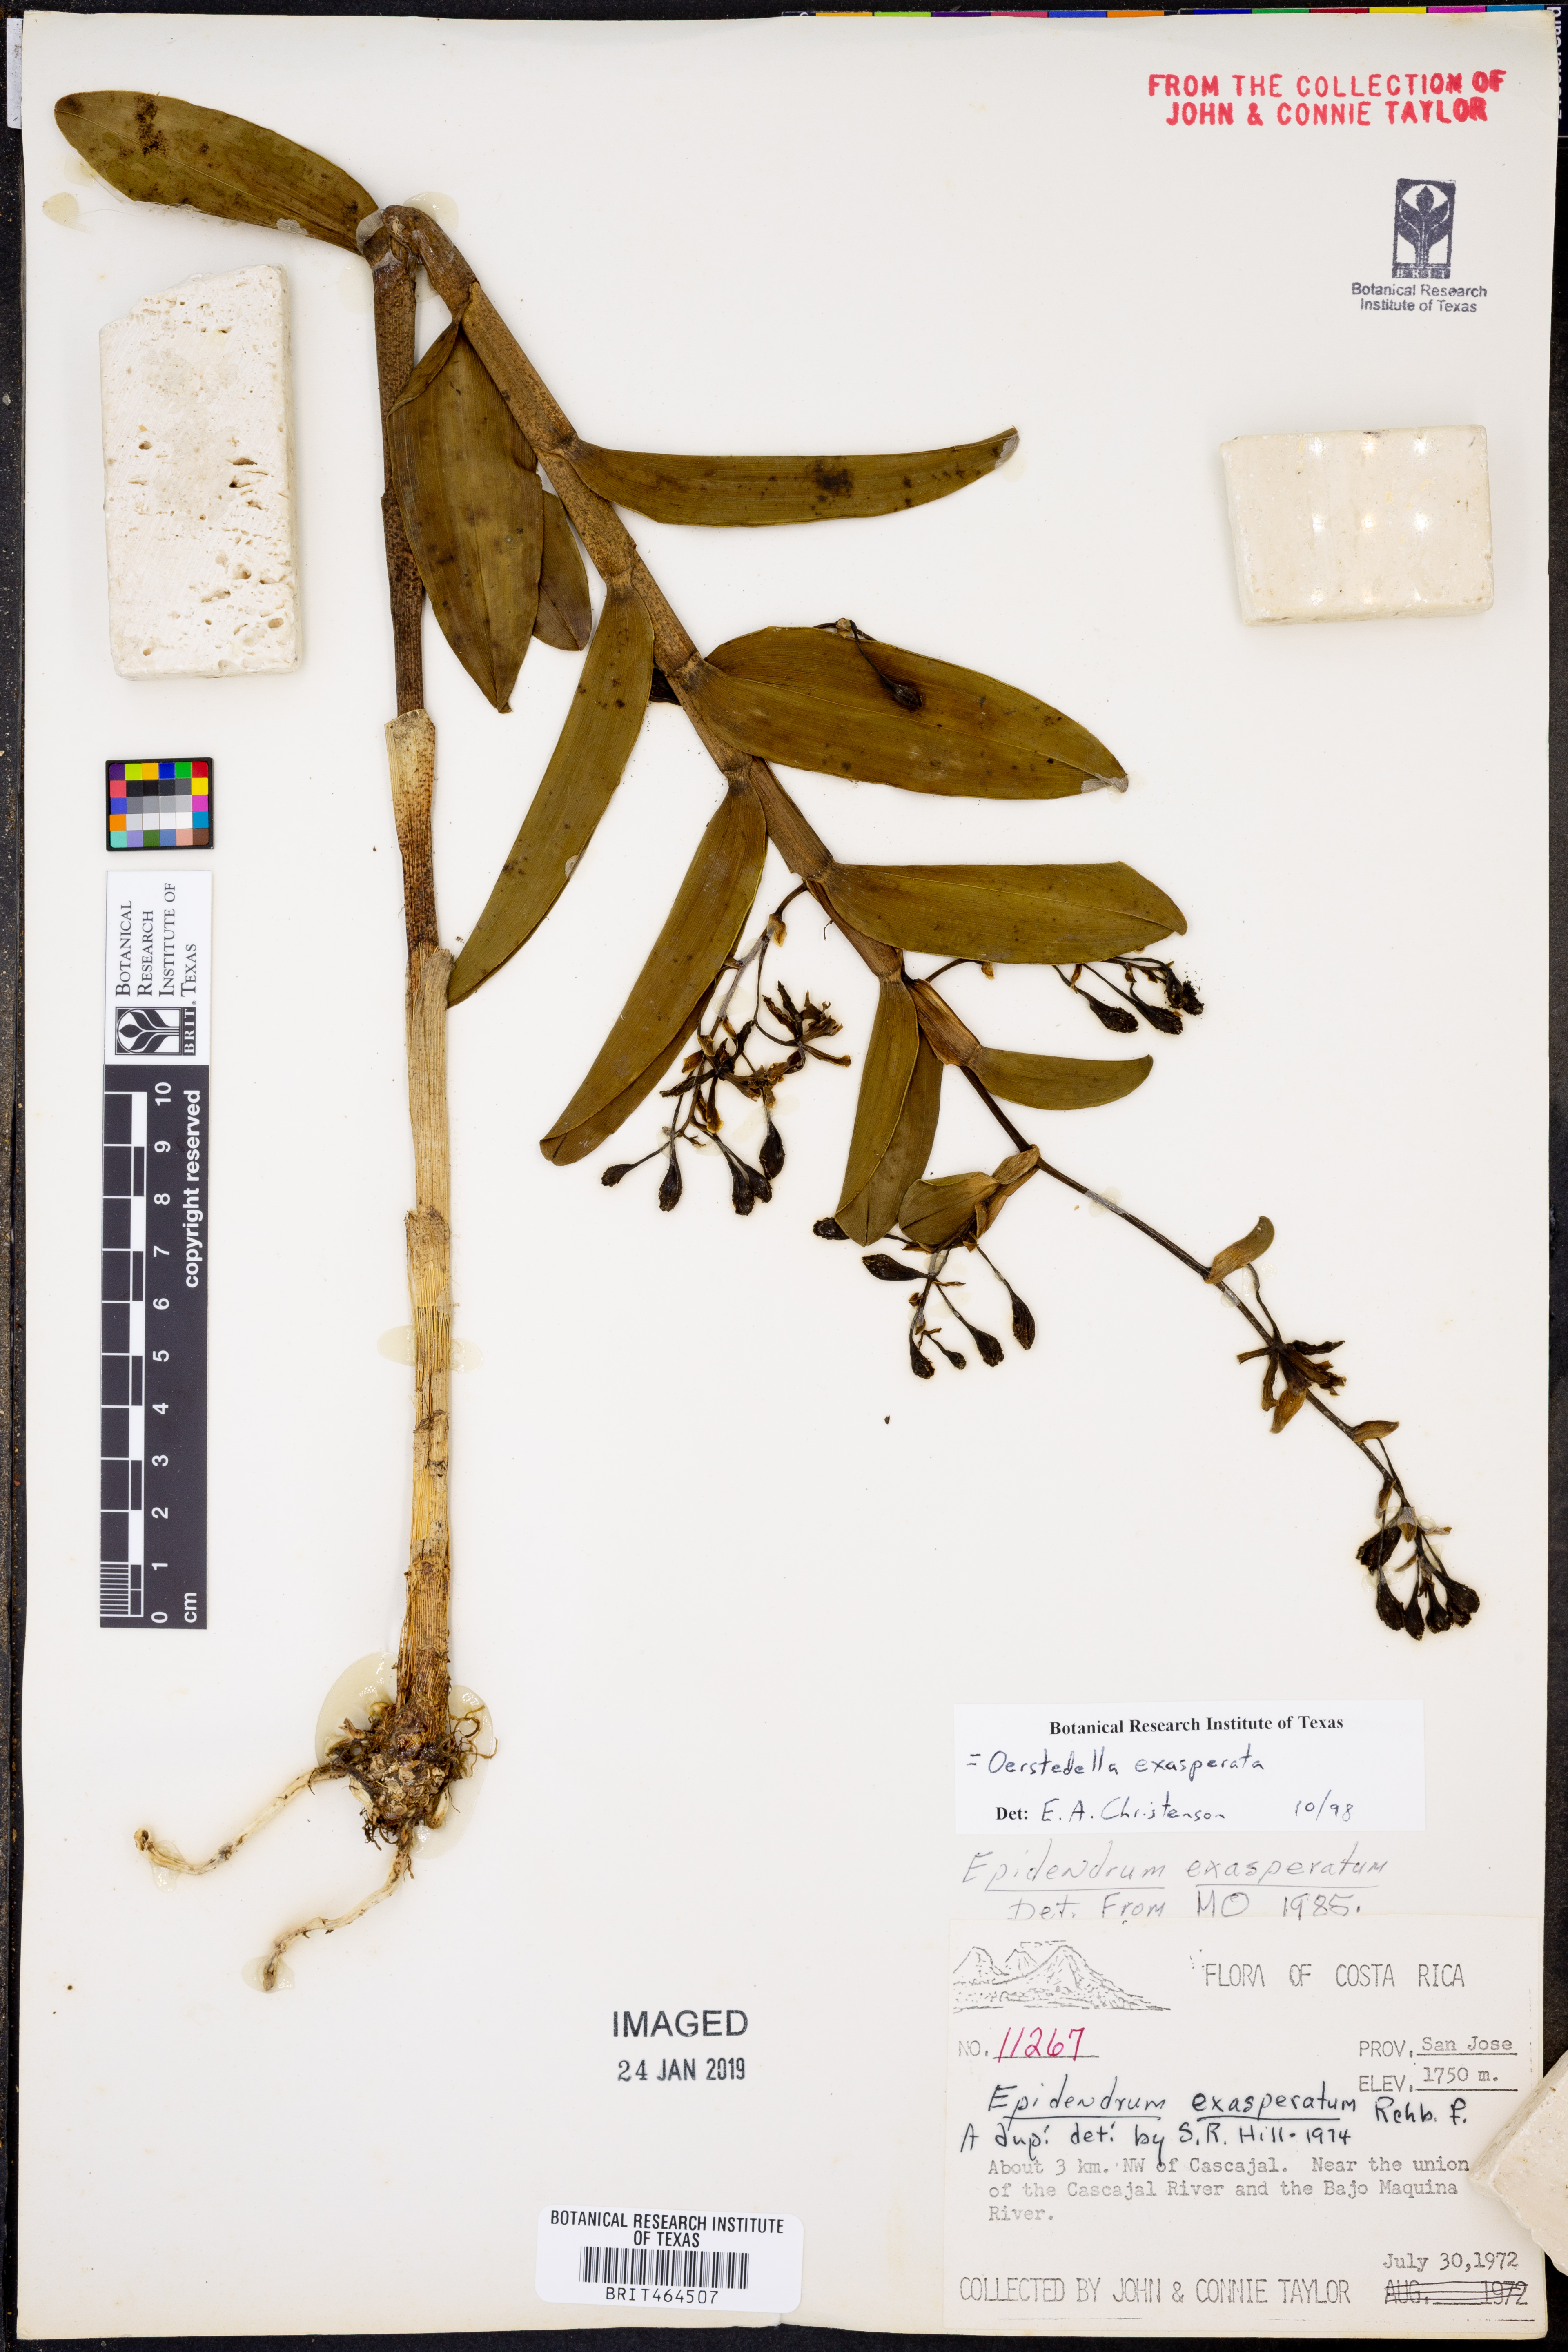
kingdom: Plantae
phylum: Tracheophyta
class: Liliopsida
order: Asparagales
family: Orchidaceae
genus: Epidendrum
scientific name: Epidendrum exasperatum
